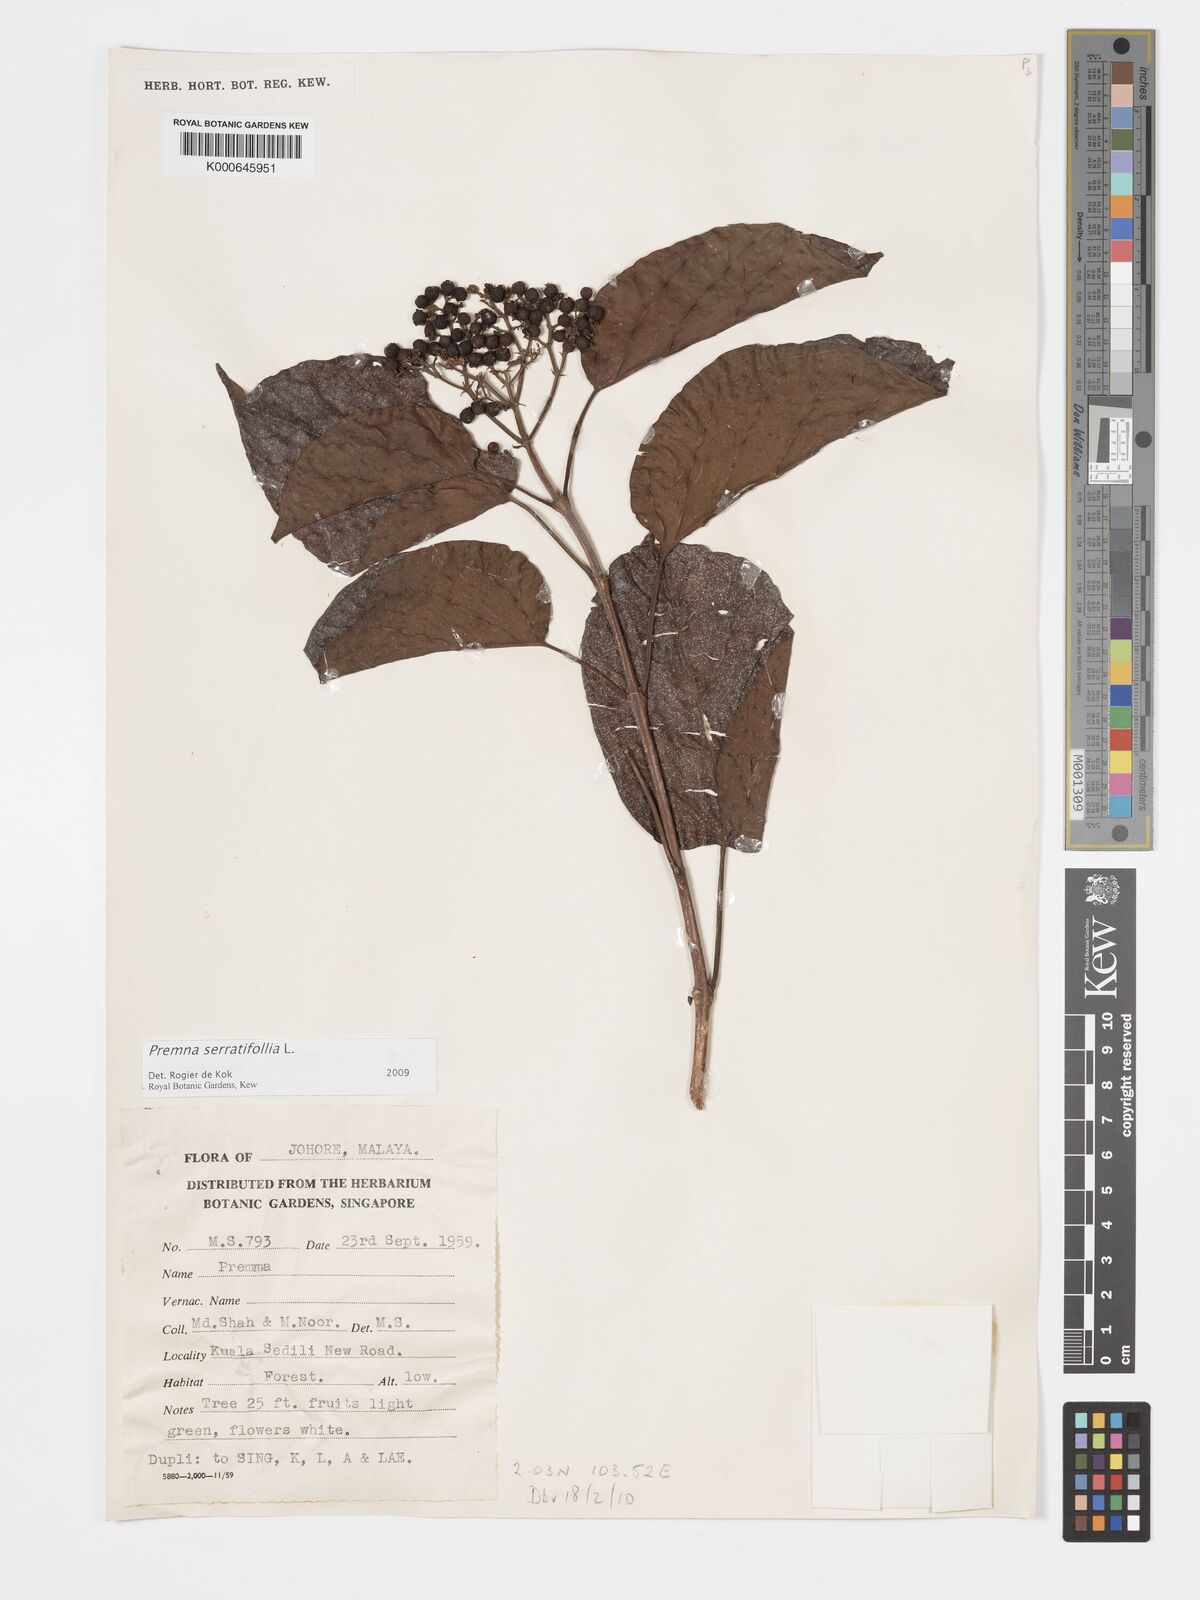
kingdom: Plantae
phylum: Tracheophyta
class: Magnoliopsida
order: Lamiales
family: Lamiaceae
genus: Premna
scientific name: Premna serratifolia
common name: Bastard guelder
